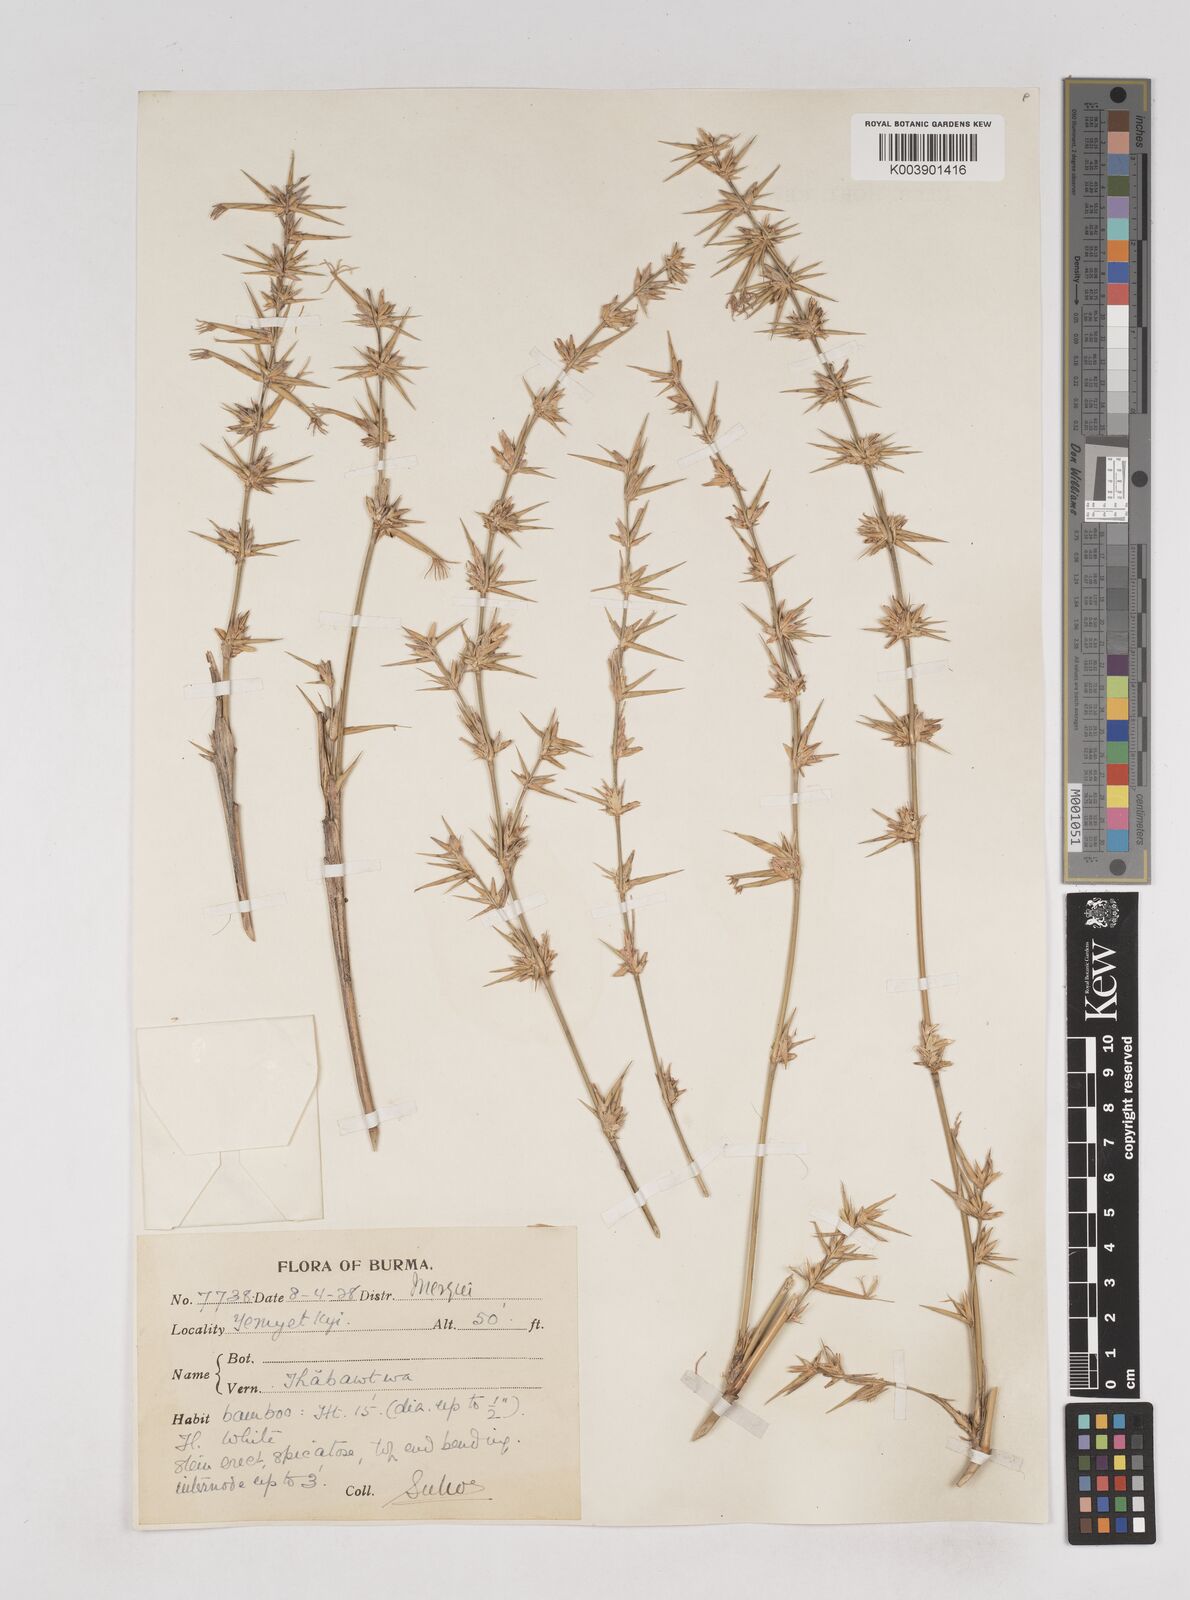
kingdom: Plantae
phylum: Tracheophyta
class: Liliopsida
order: Poales
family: Poaceae
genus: Schizostachyum
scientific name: Schizostachyum
